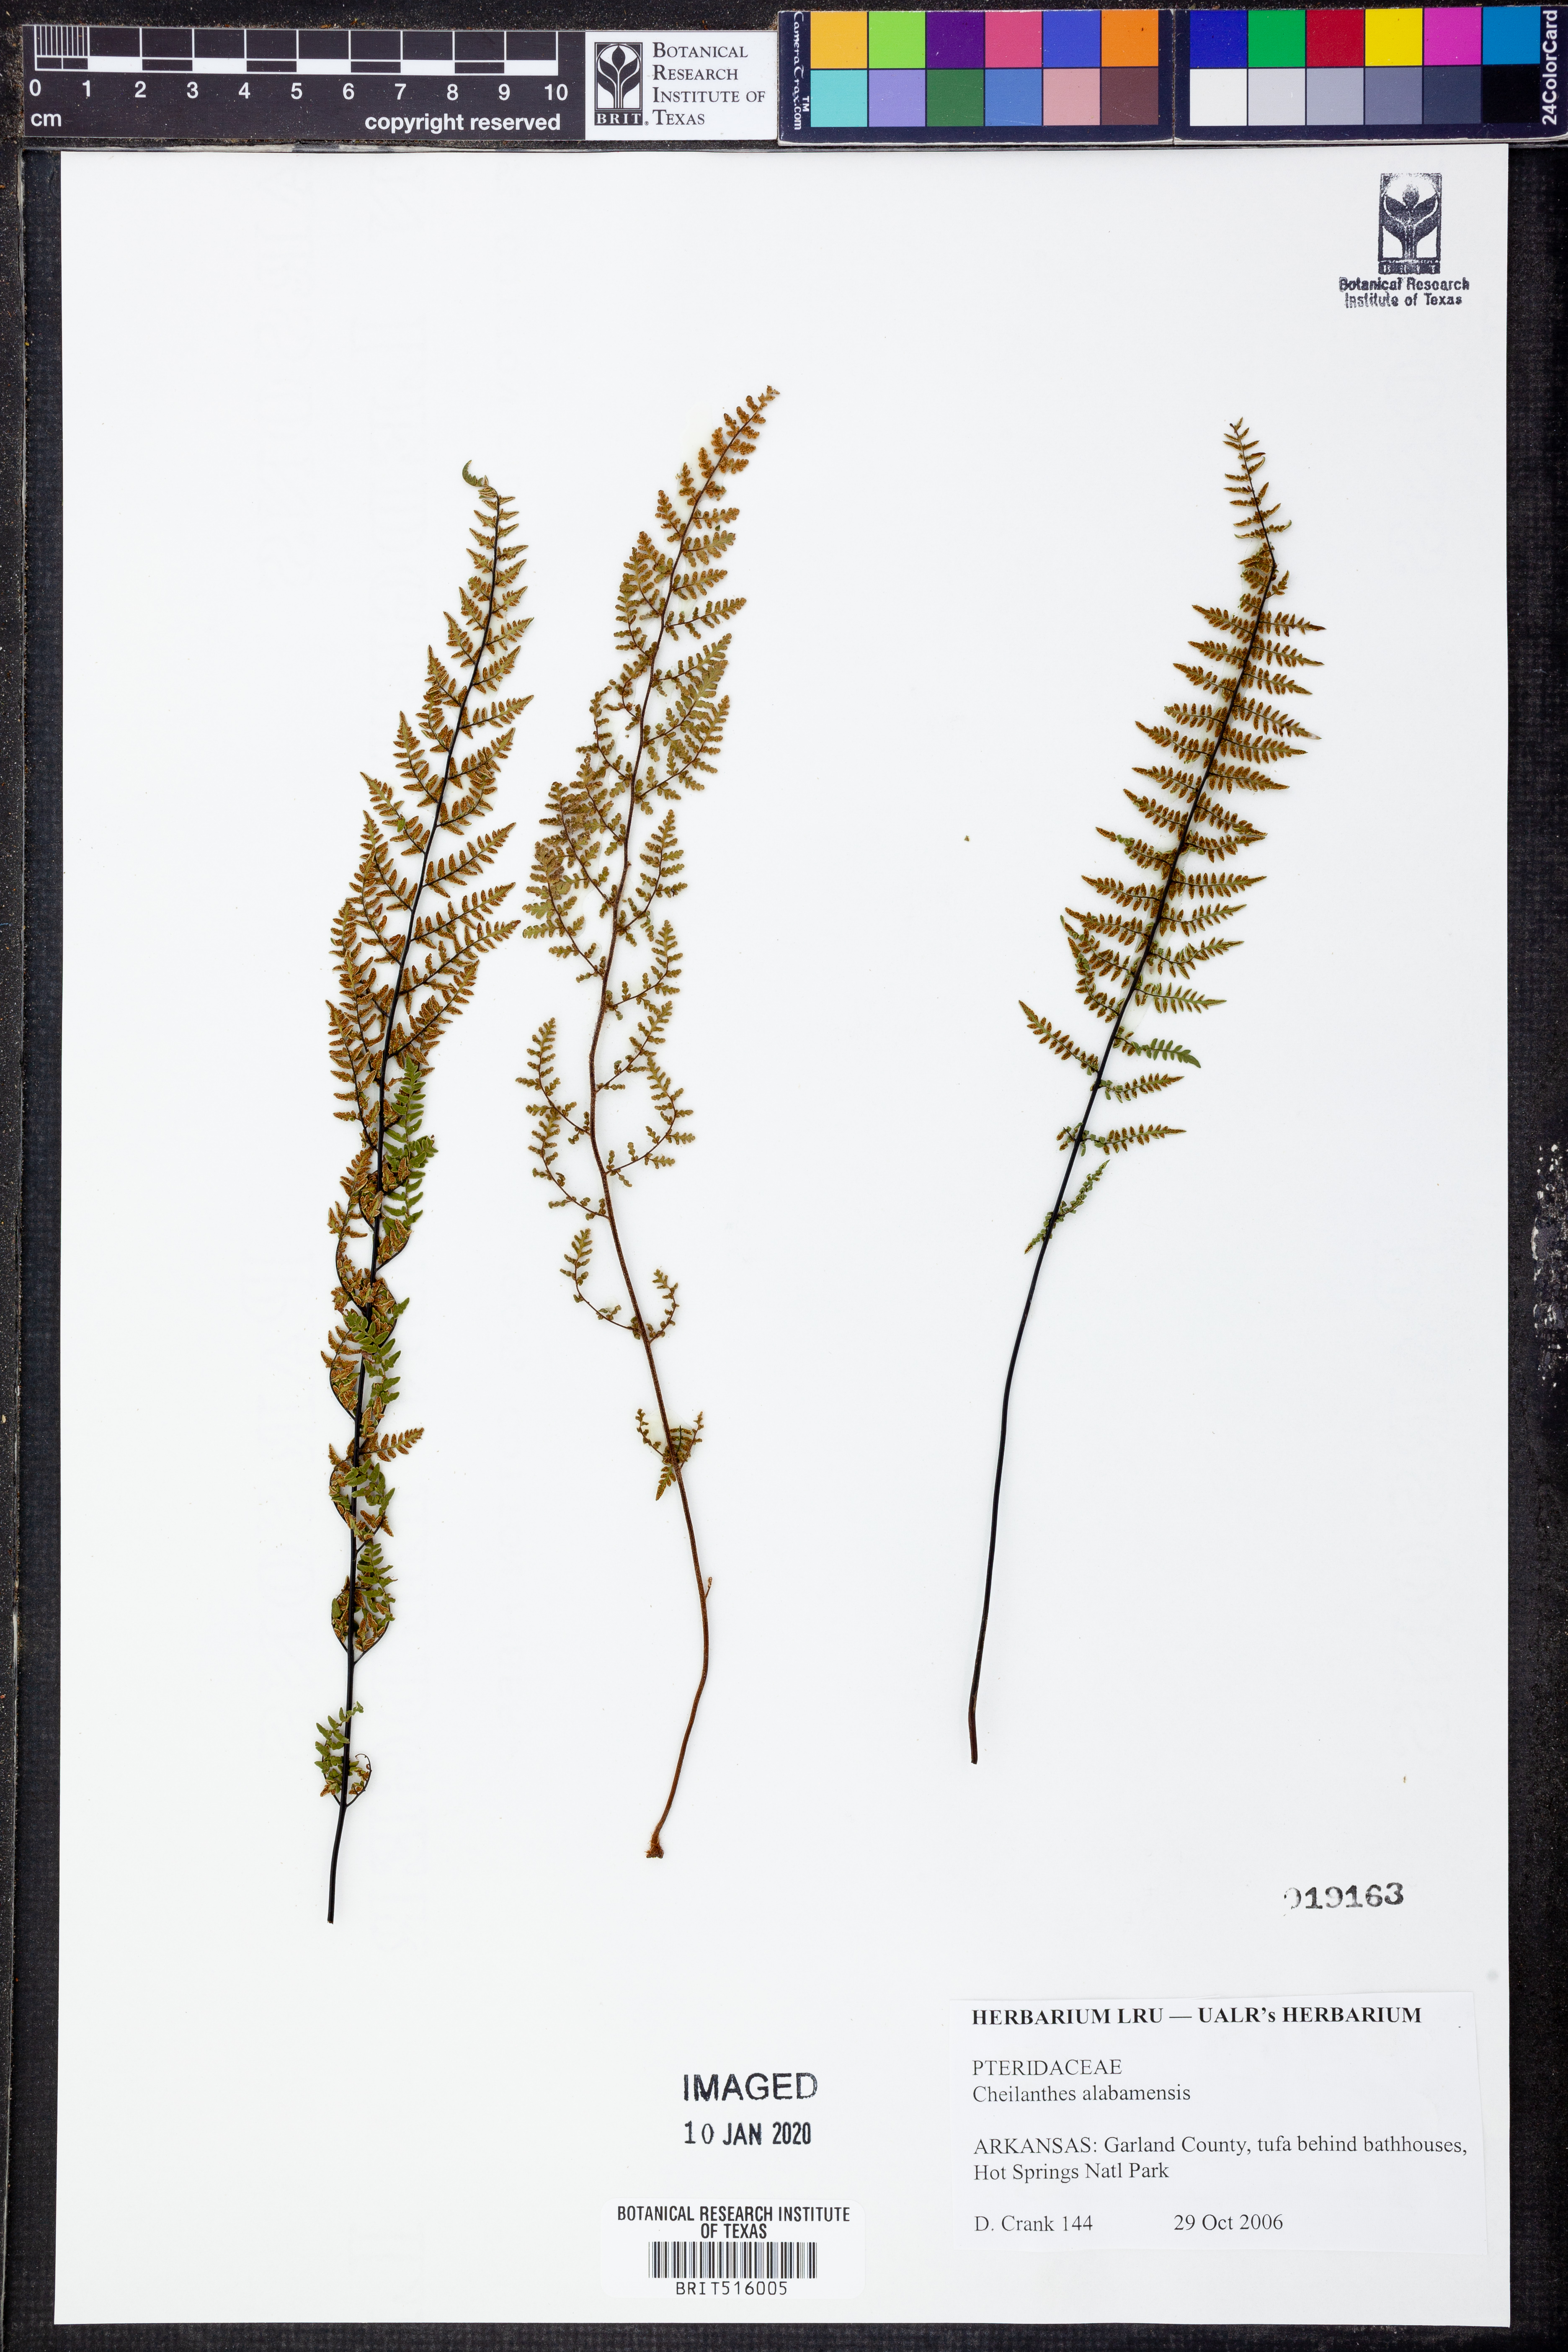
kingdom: Plantae
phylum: Tracheophyta
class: Polypodiopsida
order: Polypodiales
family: Pteridaceae
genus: Myriopteris
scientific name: Myriopteris alabamensis
